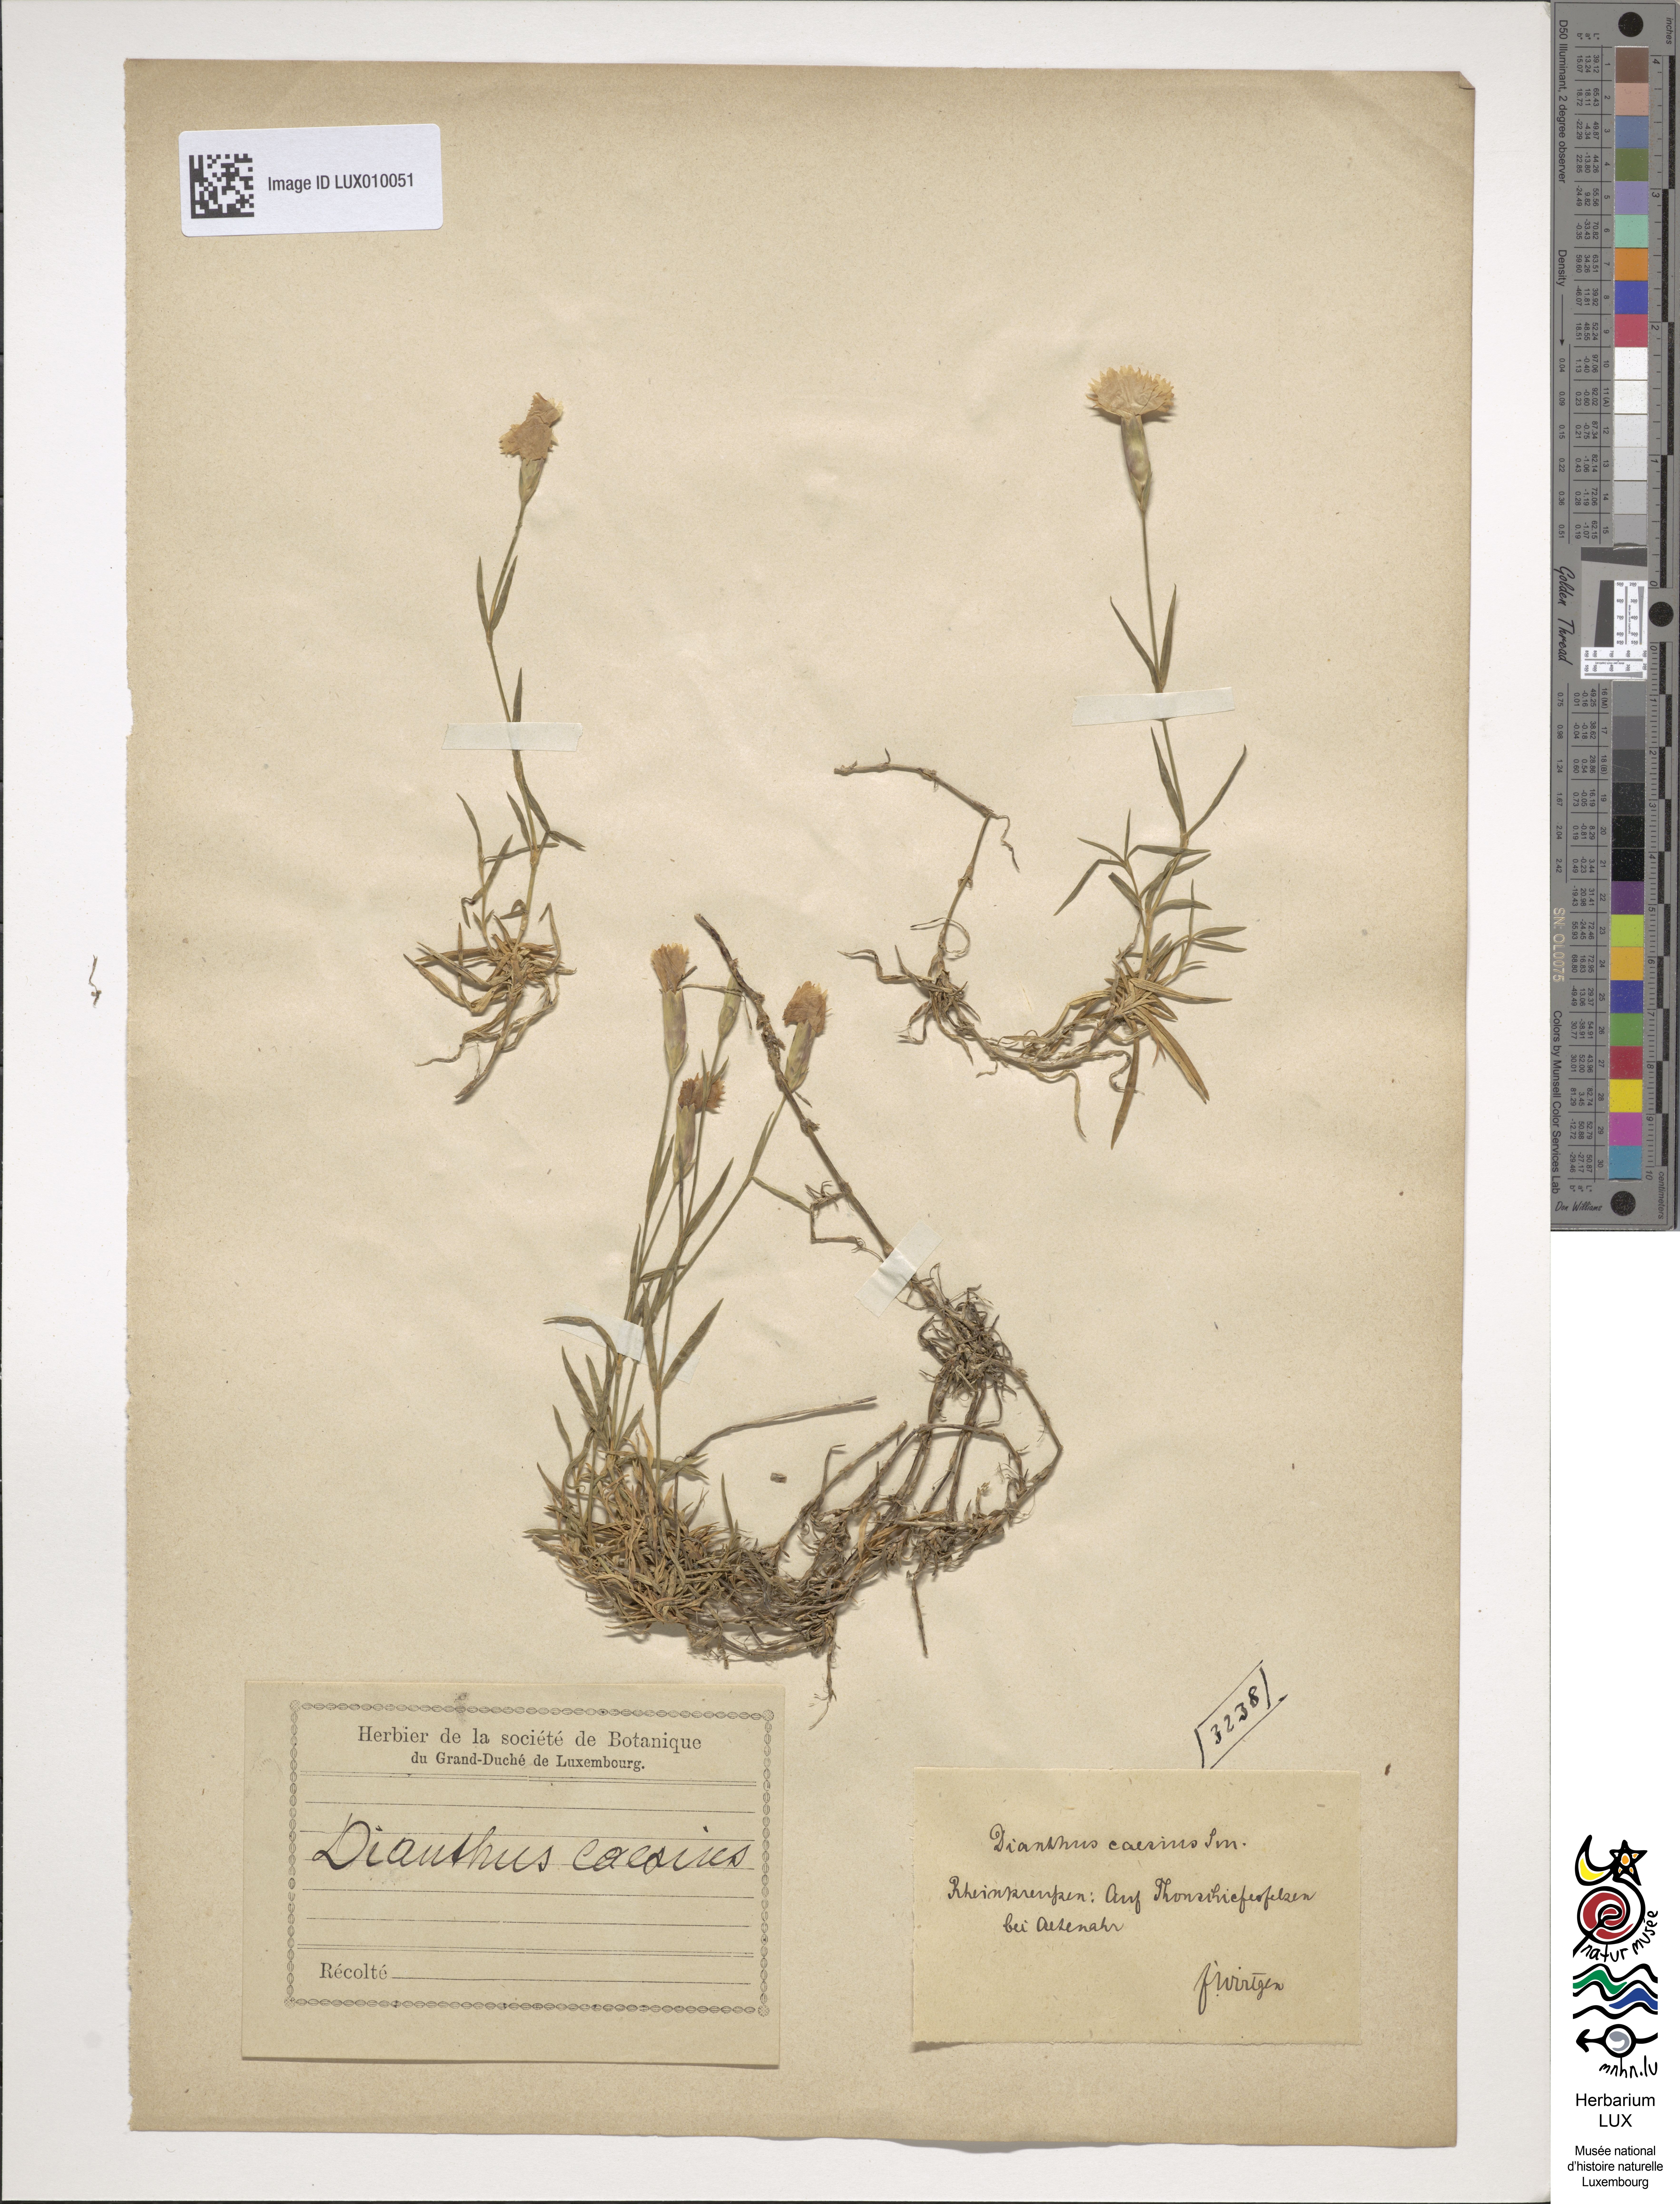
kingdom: Plantae
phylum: Tracheophyta
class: Magnoliopsida
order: Caryophyllales
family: Caryophyllaceae
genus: Dianthus
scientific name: Dianthus gratianopolitanus
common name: Cheddar pink
